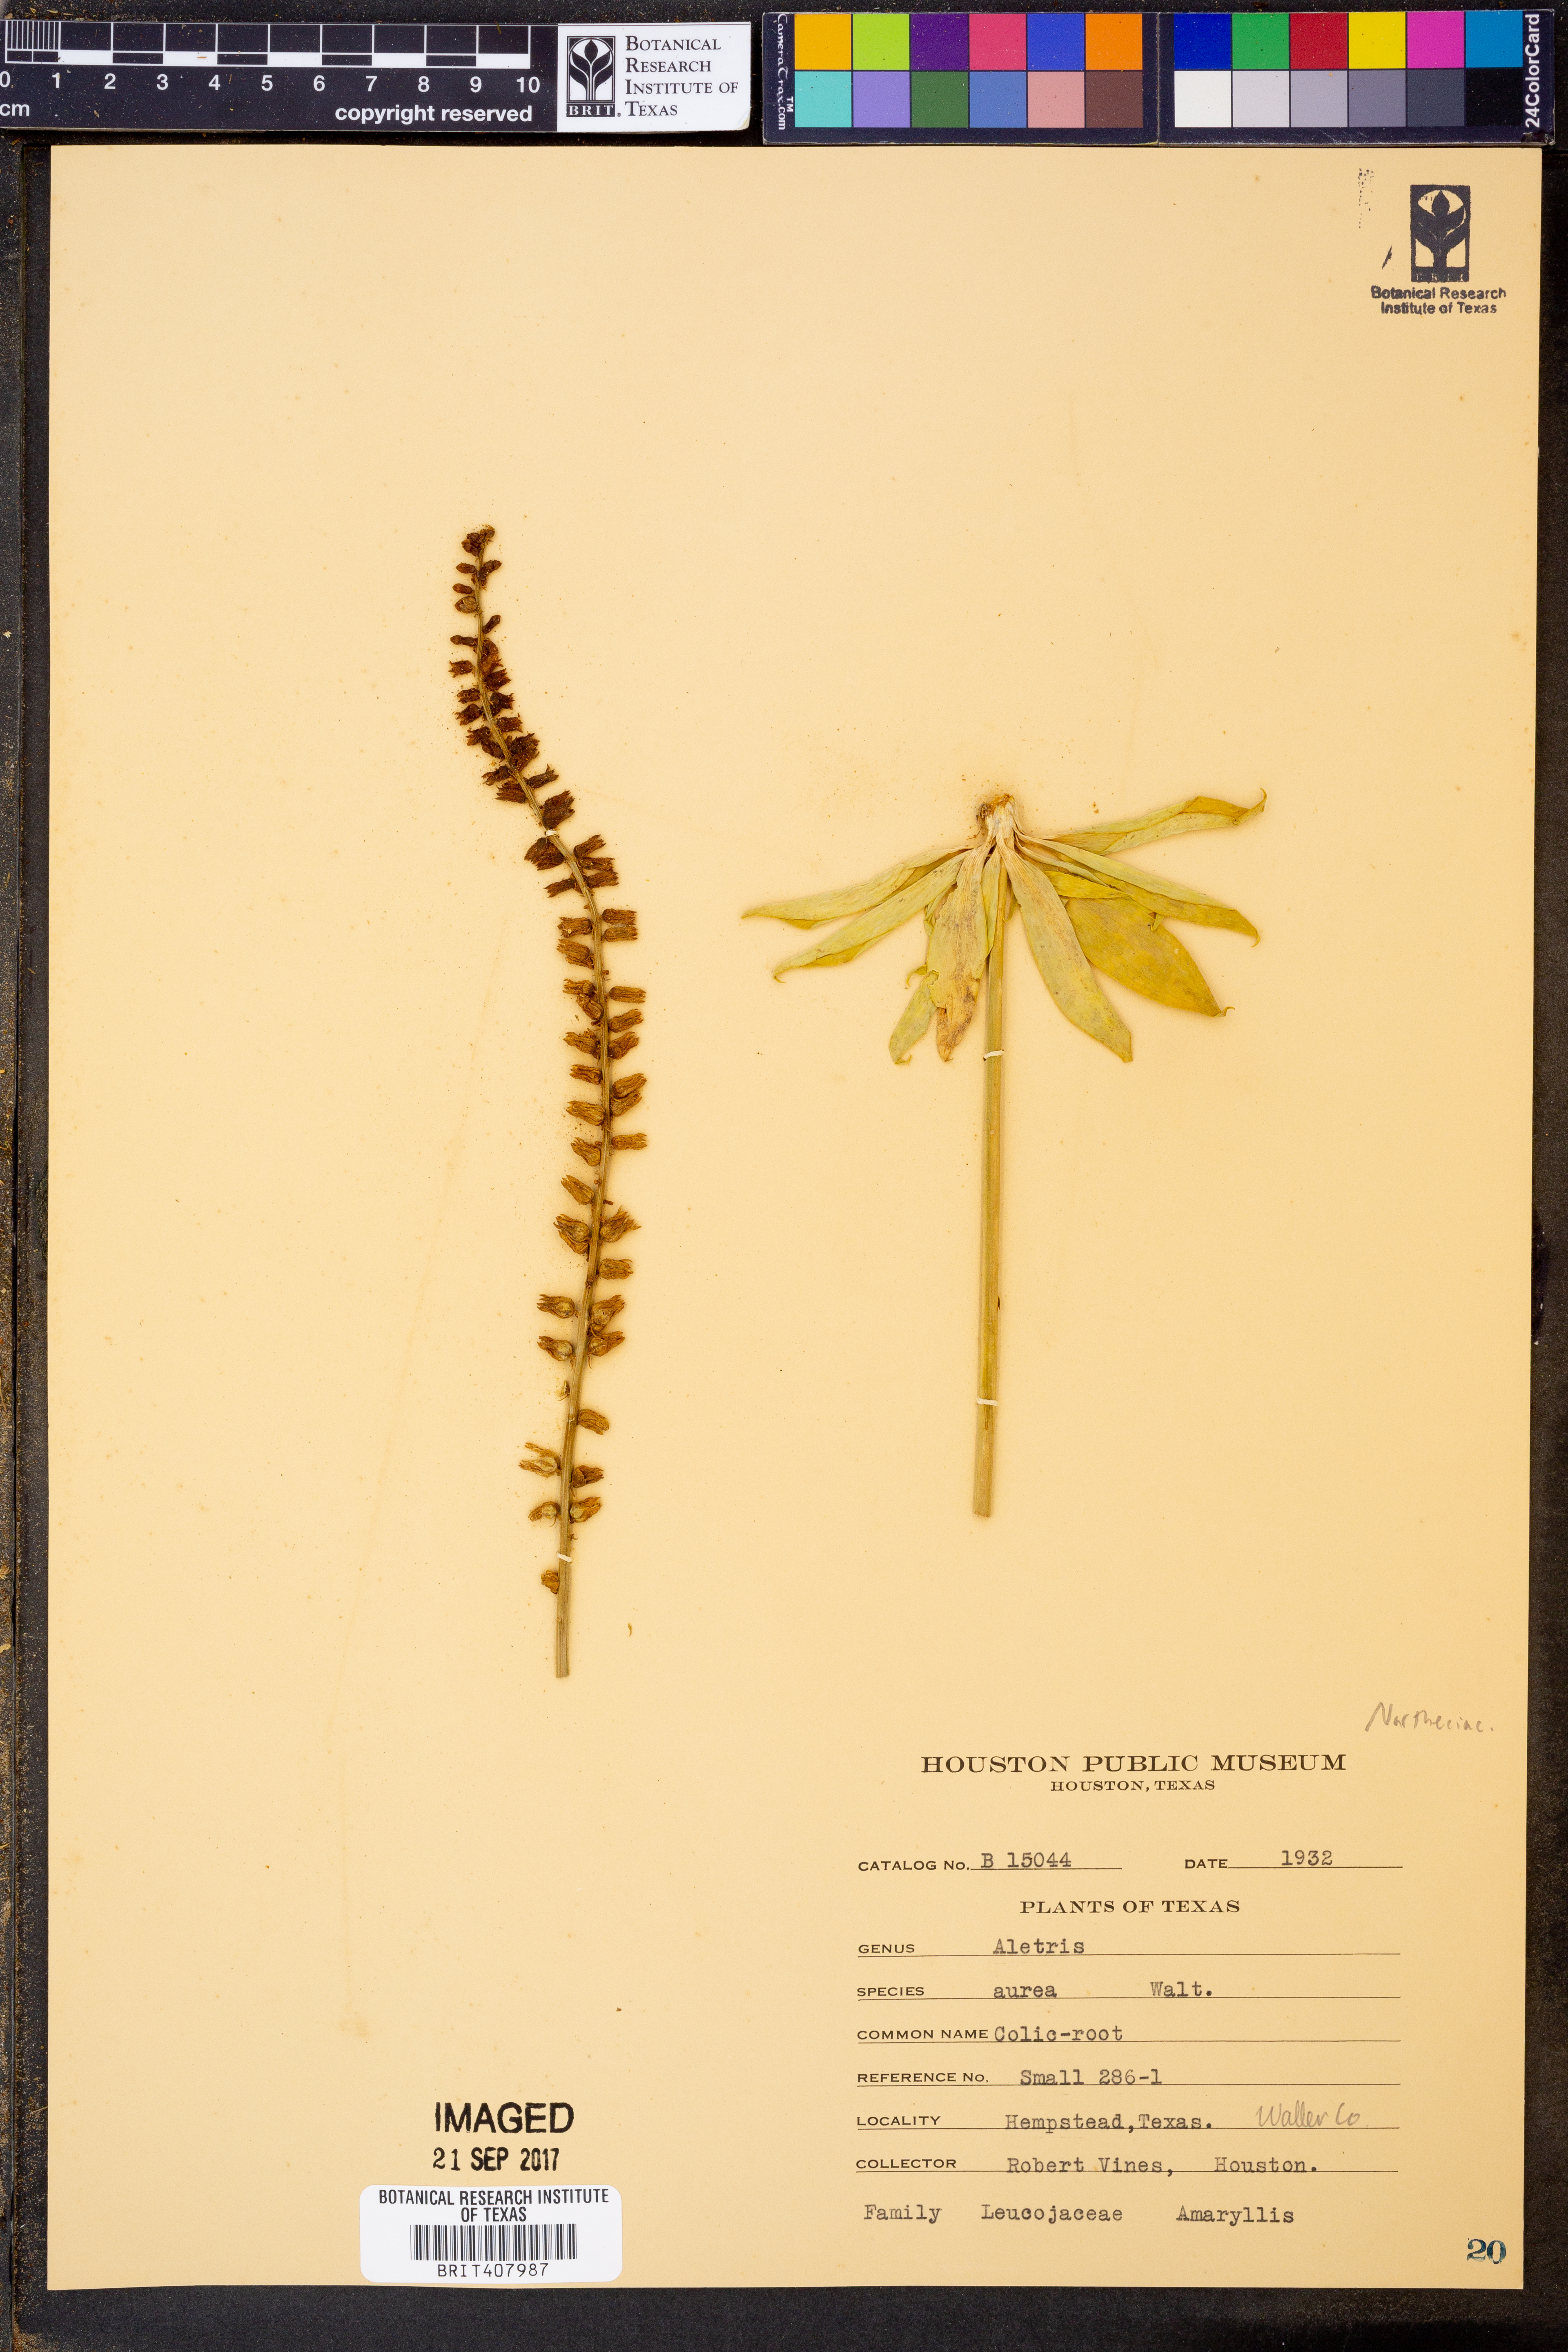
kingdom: Plantae
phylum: Tracheophyta
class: Liliopsida
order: Dioscoreales
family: Nartheciaceae
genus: Aletris
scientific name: Aletris aurea
